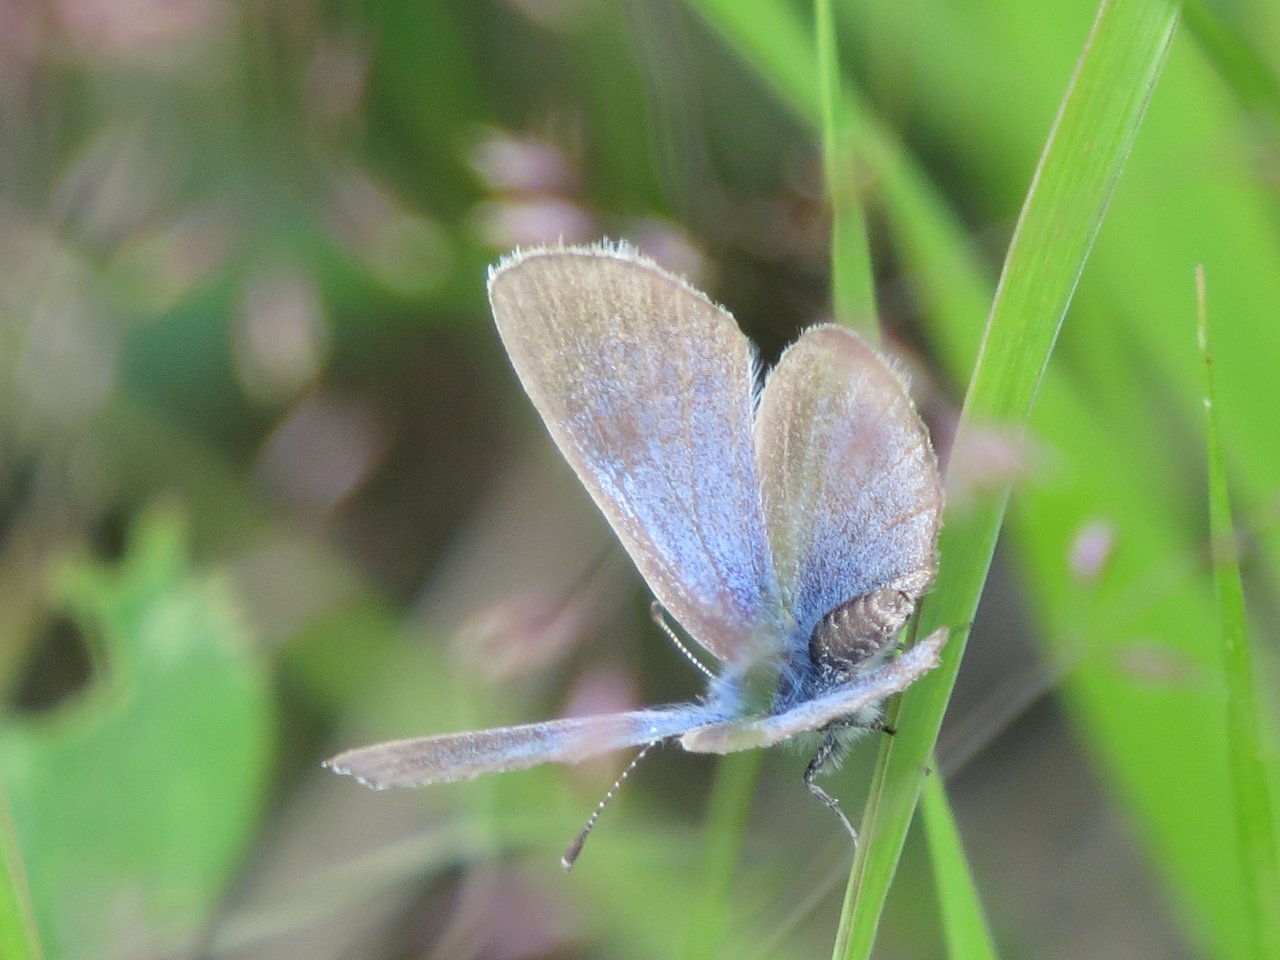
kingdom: Animalia
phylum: Arthropoda
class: Insecta
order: Lepidoptera
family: Lycaenidae
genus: Plebejus
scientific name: Plebejus saepiolus
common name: Greenish Blue
